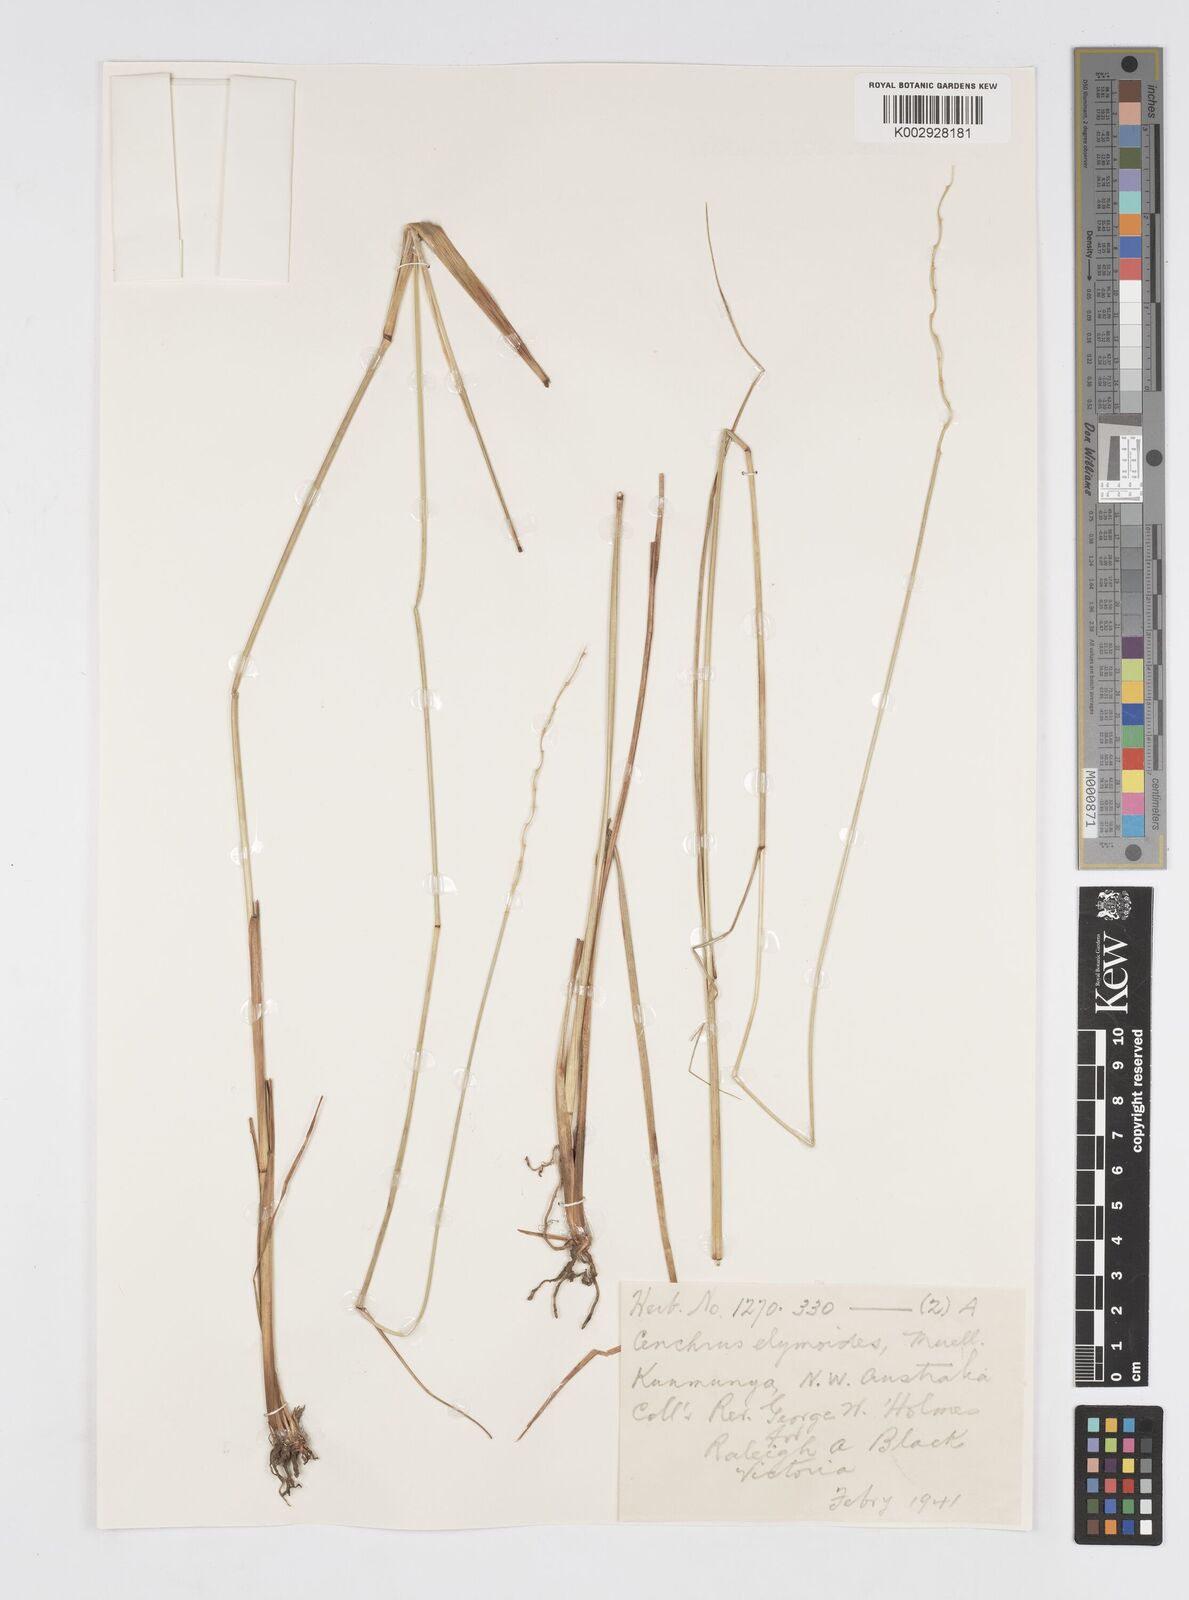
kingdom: Plantae
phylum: Tracheophyta
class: Liliopsida
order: Poales
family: Poaceae
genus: Cenchrus
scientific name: Cenchrus elymoides
